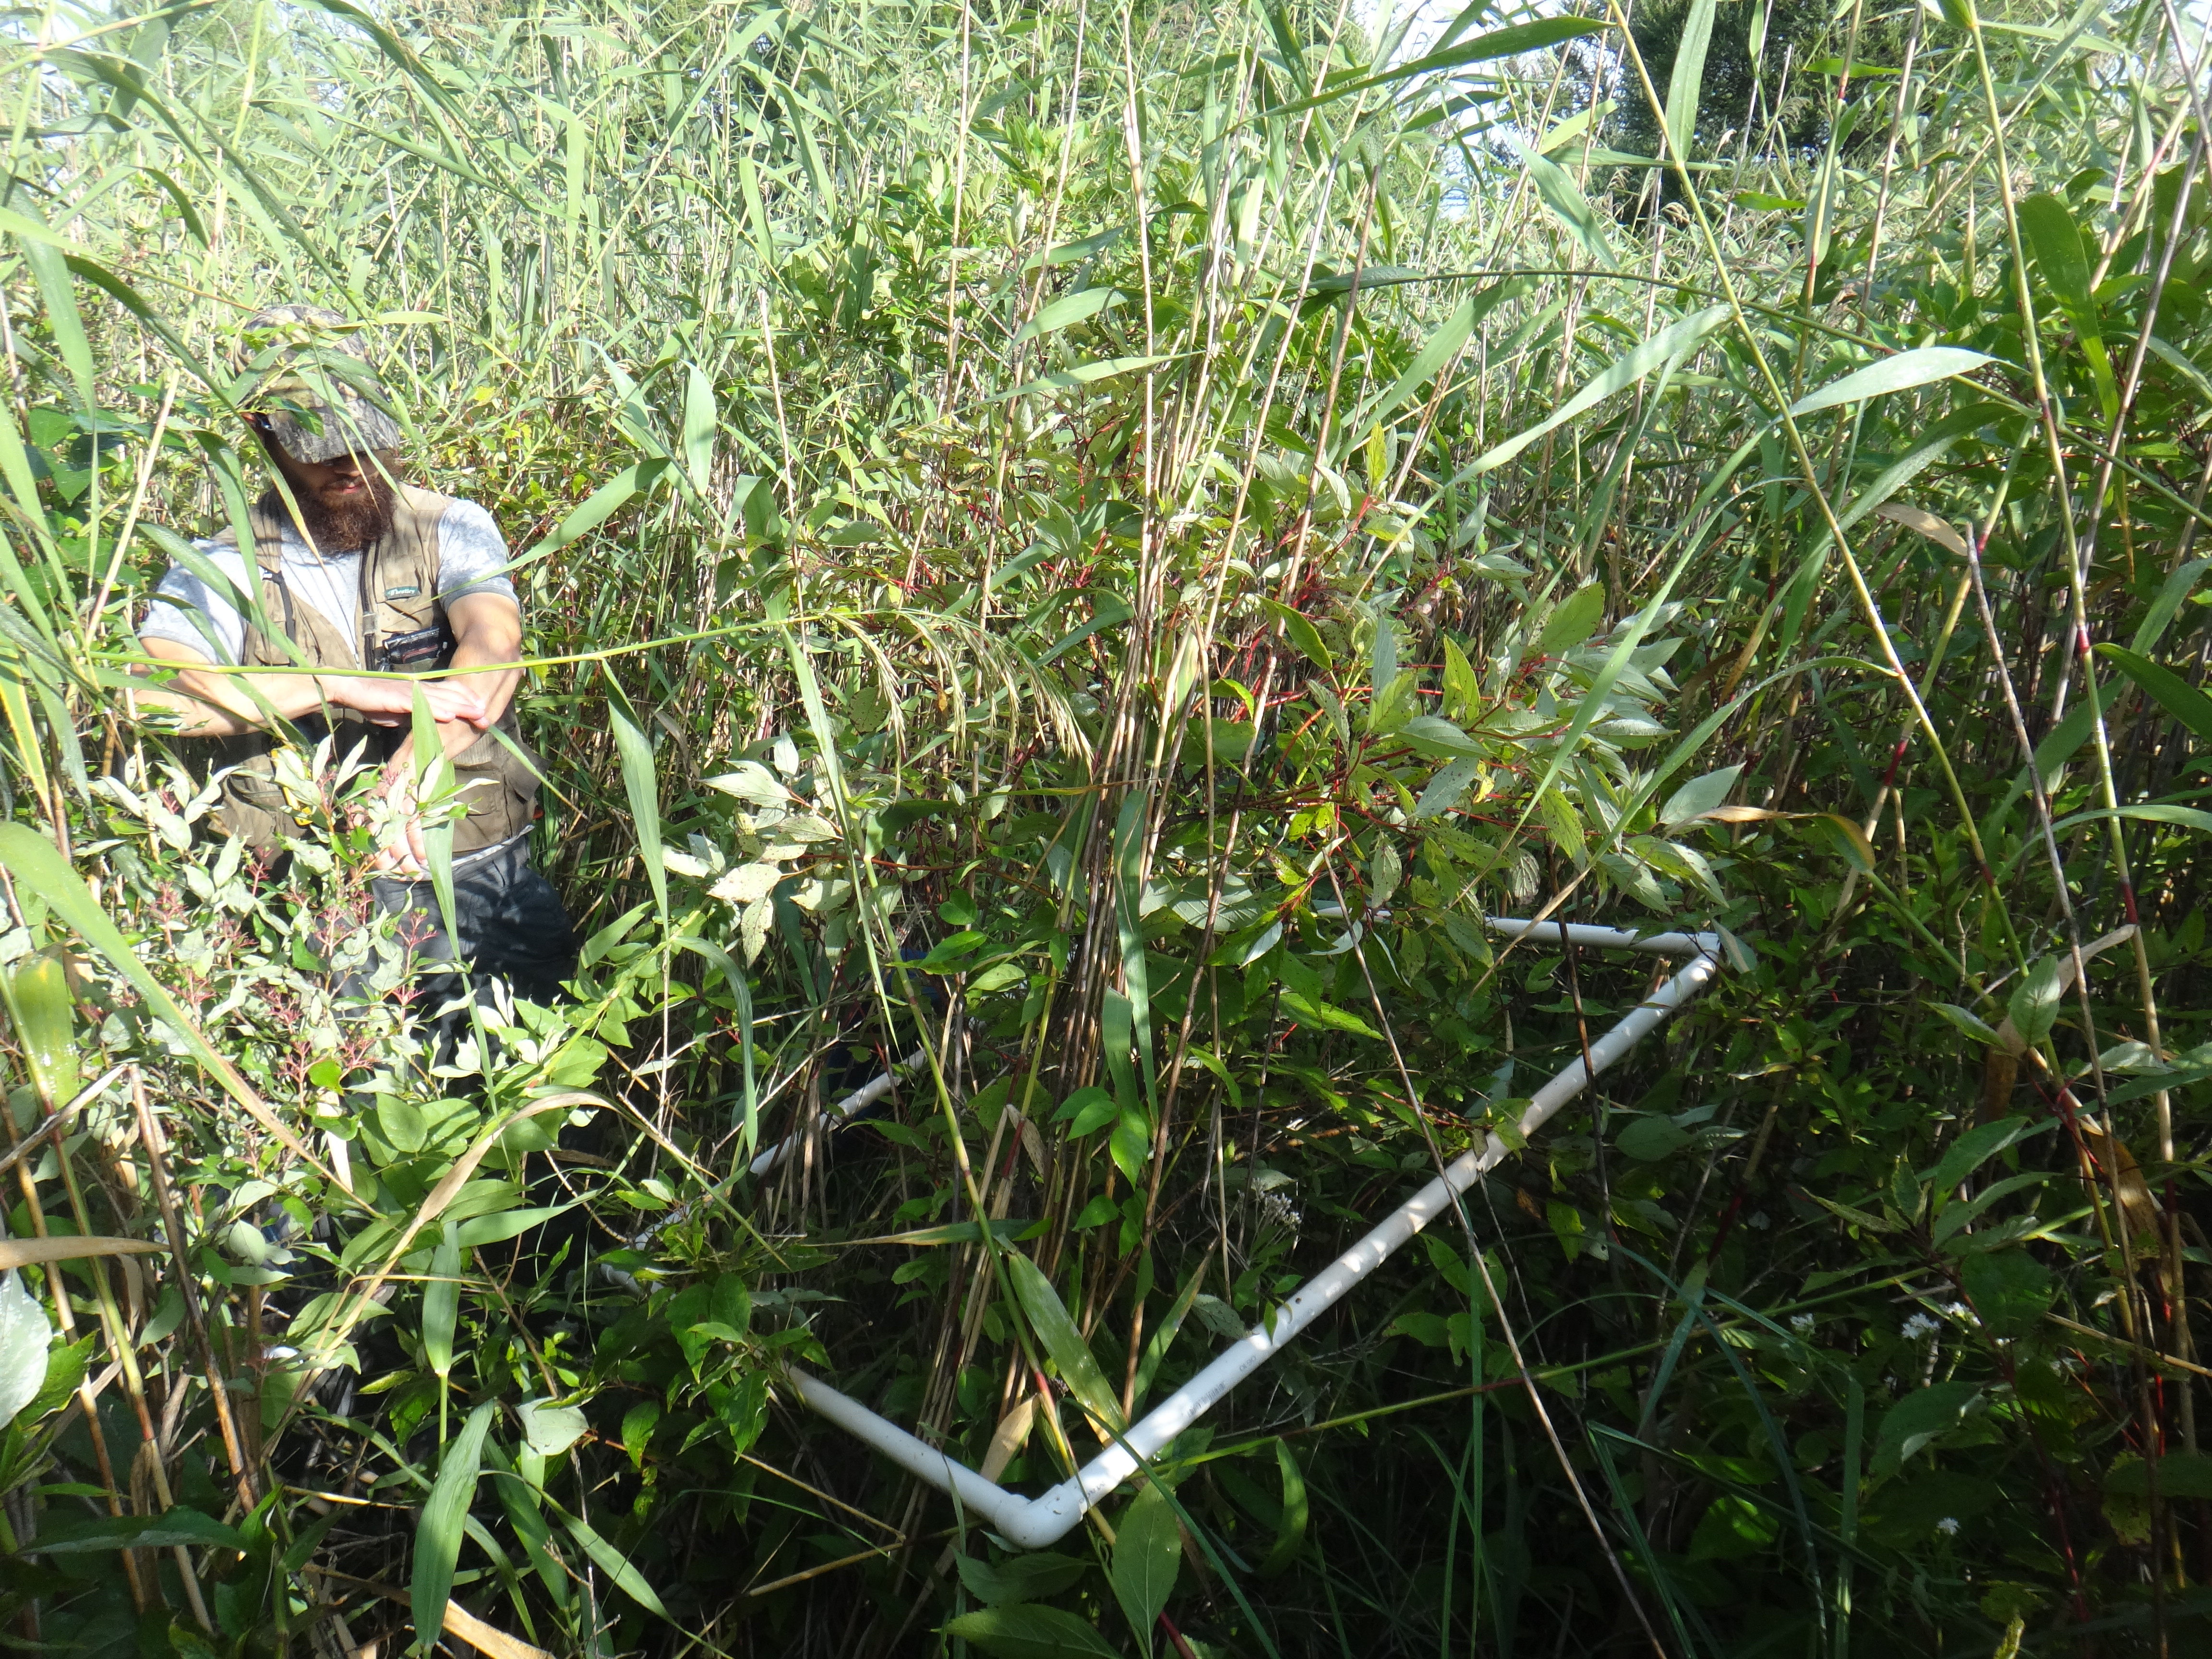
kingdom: Plantae
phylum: Tracheophyta
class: Magnoliopsida
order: Asterales
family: Asteraceae
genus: Eutrochium
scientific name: Eutrochium maculatum
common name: Spotted joe pye weed
